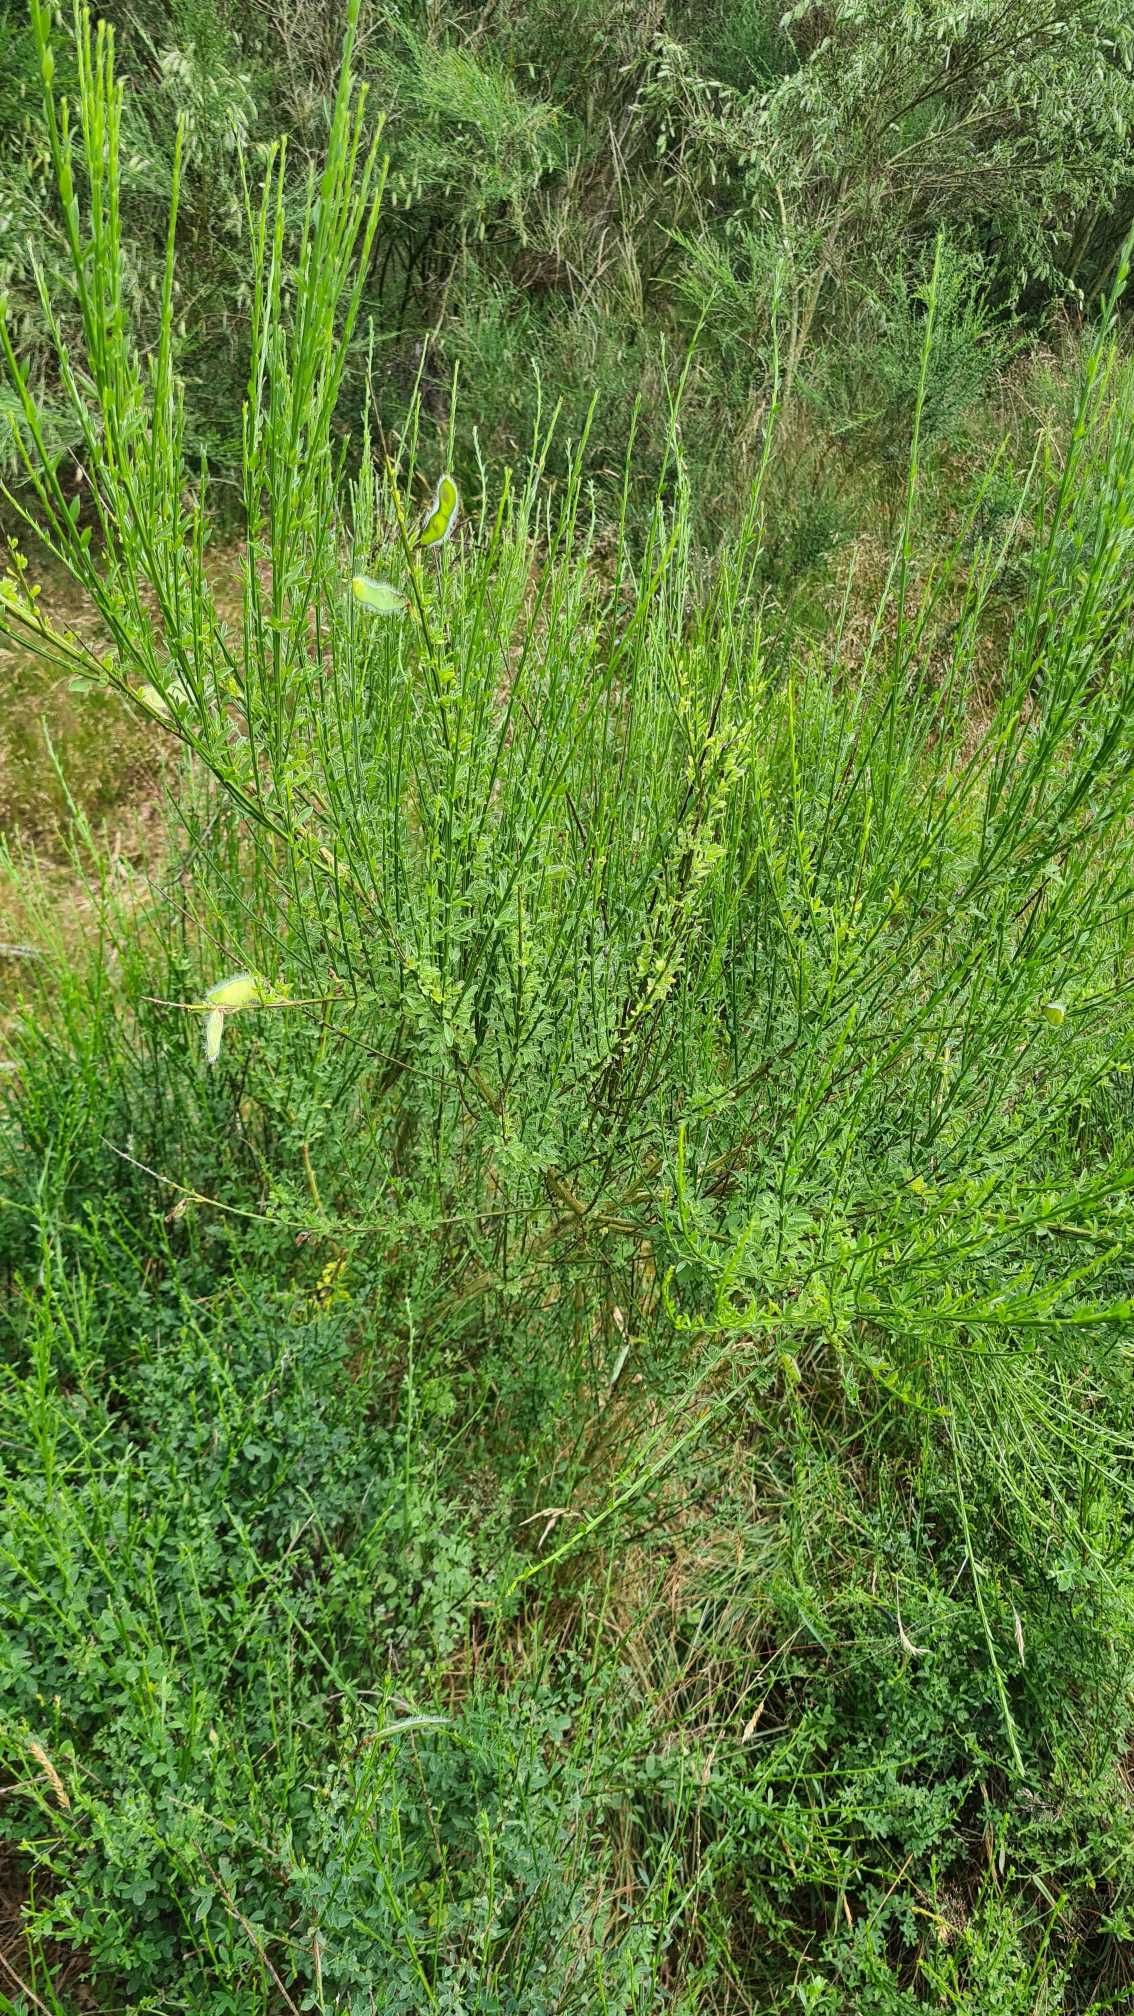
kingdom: Plantae
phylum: Tracheophyta
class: Magnoliopsida
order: Fabales
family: Fabaceae
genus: Cytisus
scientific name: Cytisus scoparius
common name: Almindelig gyvel
